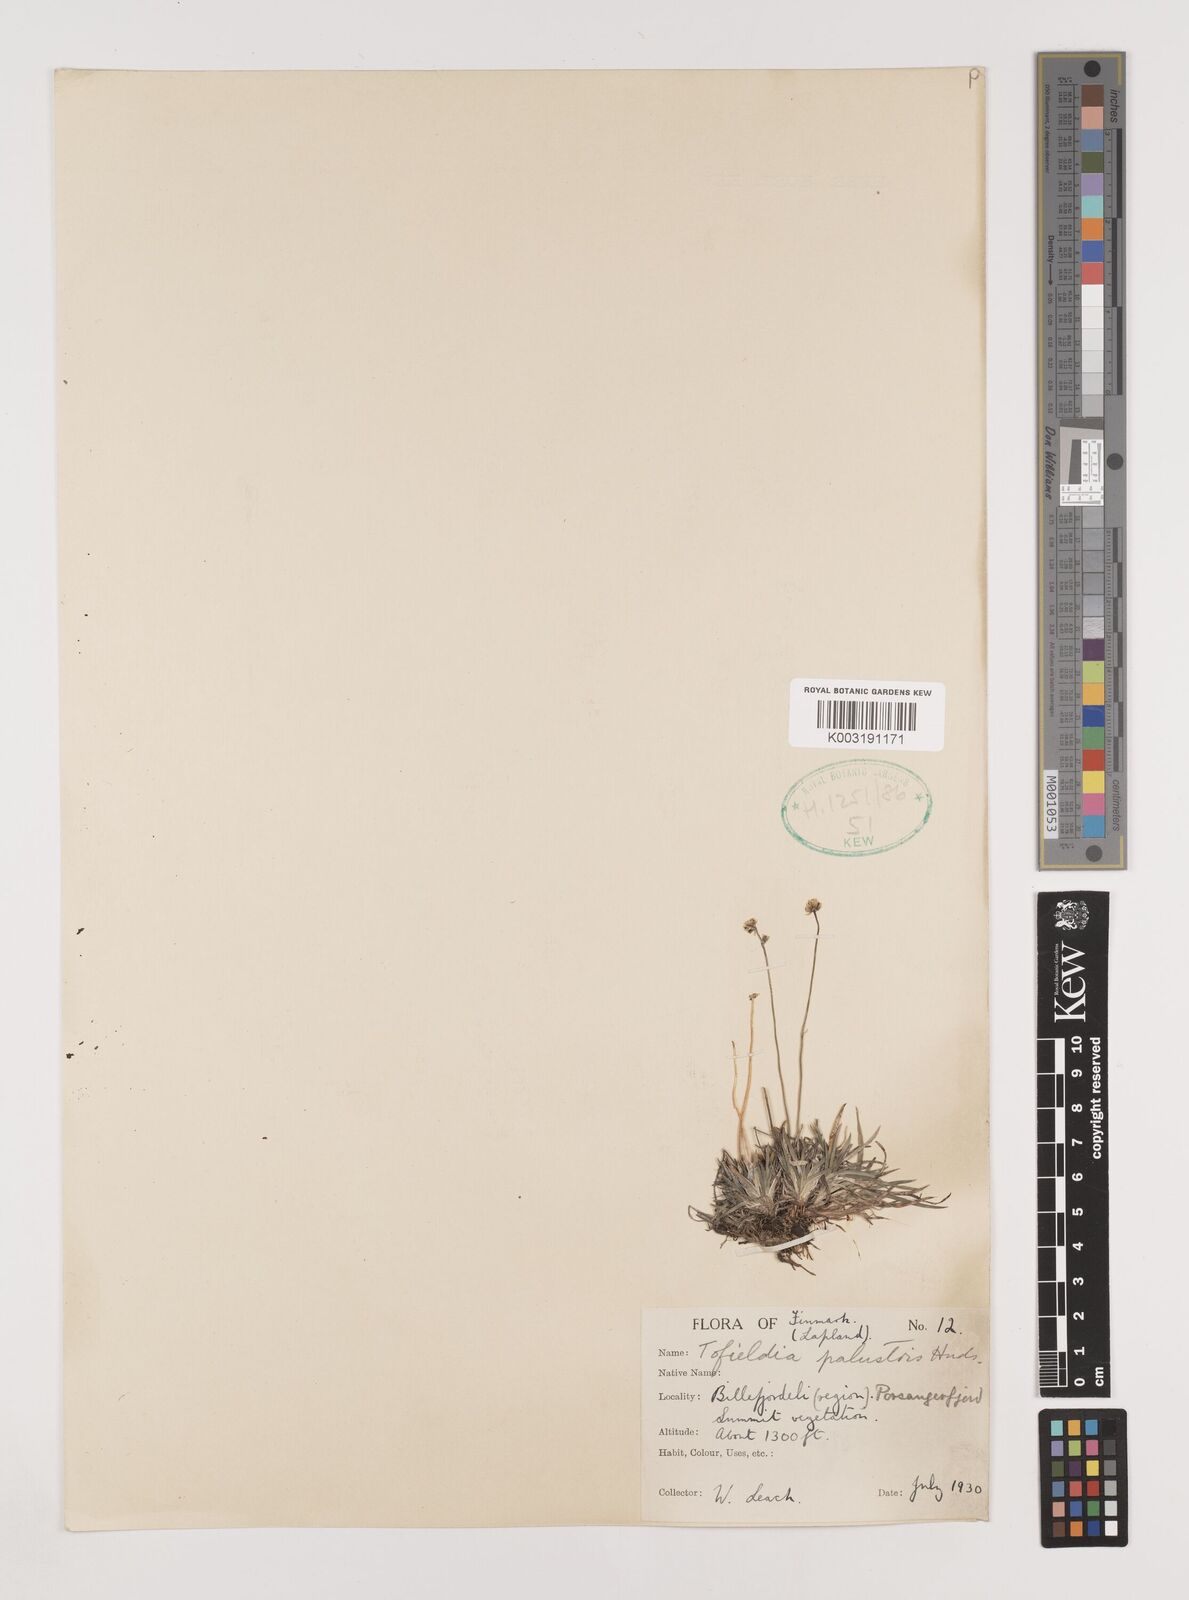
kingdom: Plantae
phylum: Tracheophyta
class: Liliopsida
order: Alismatales
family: Tofieldiaceae
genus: Tofieldia
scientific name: Tofieldia pusilla
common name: Scottish false asphodel
